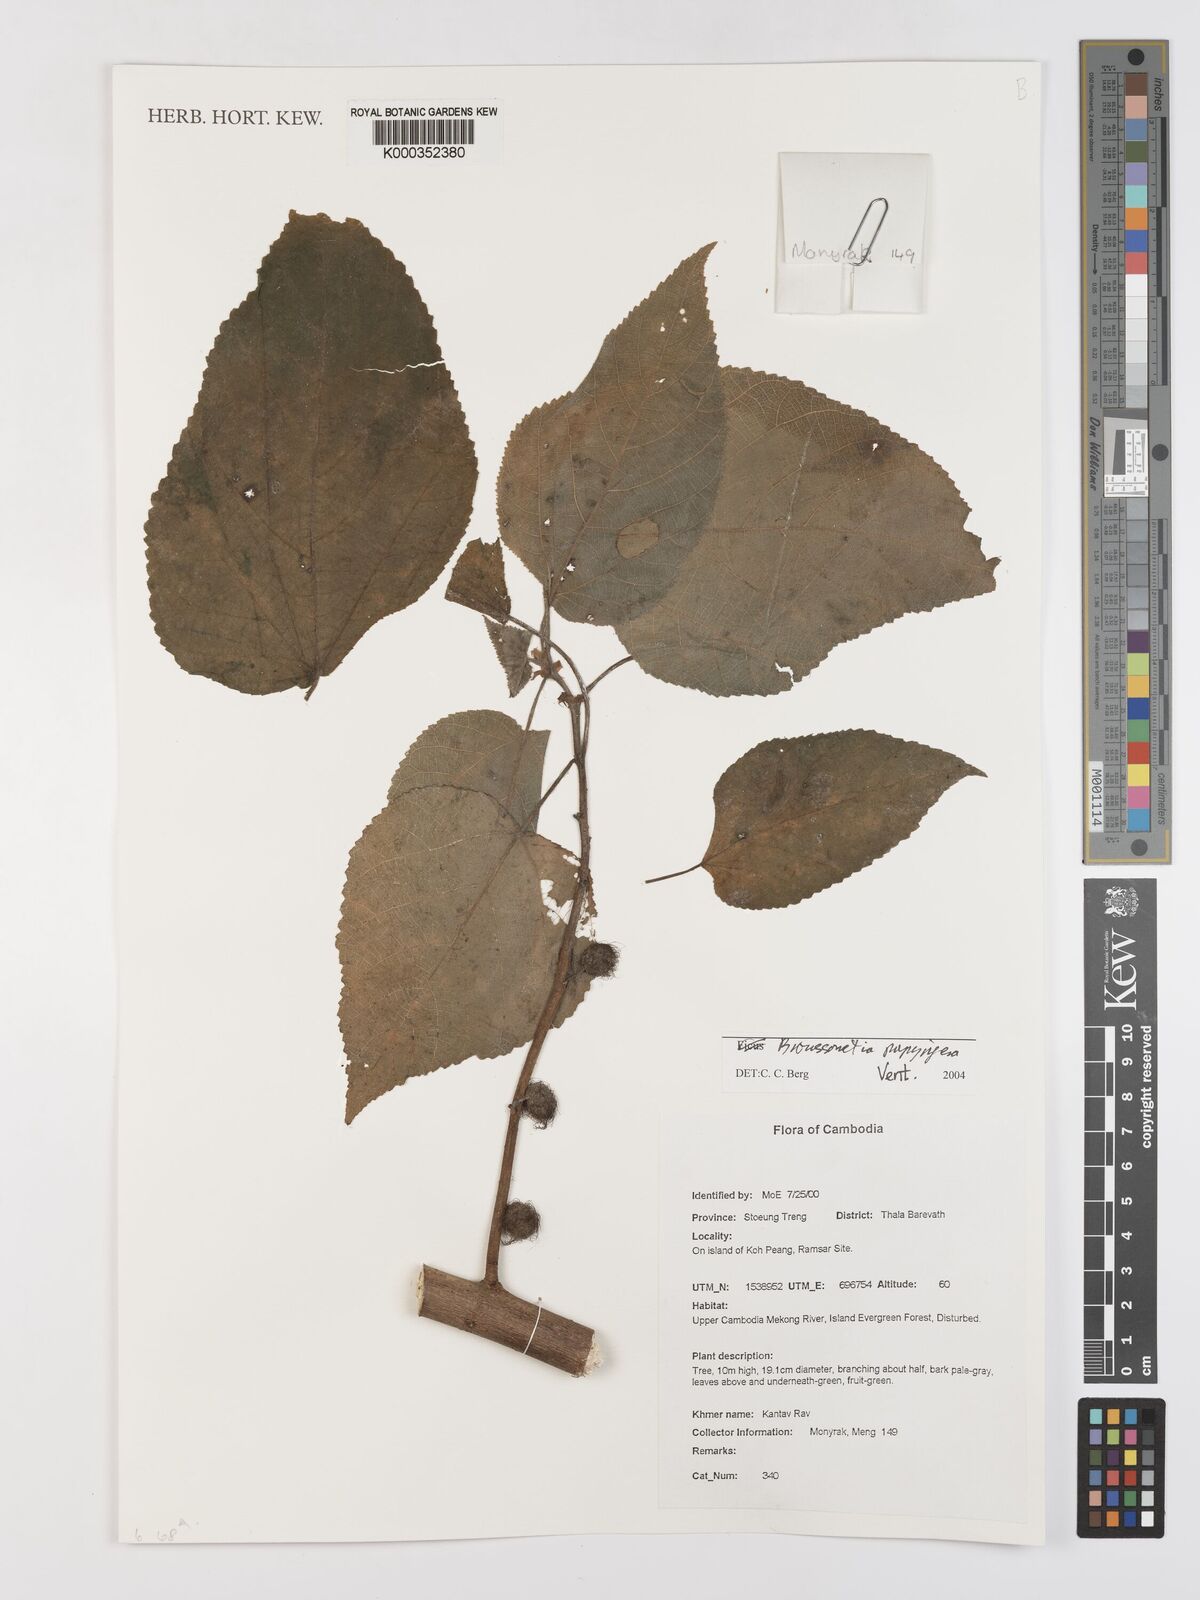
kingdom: Plantae
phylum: Tracheophyta
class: Magnoliopsida
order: Rosales
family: Moraceae
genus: Broussonetia
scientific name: Broussonetia papyrifera
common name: Paper mulberry
